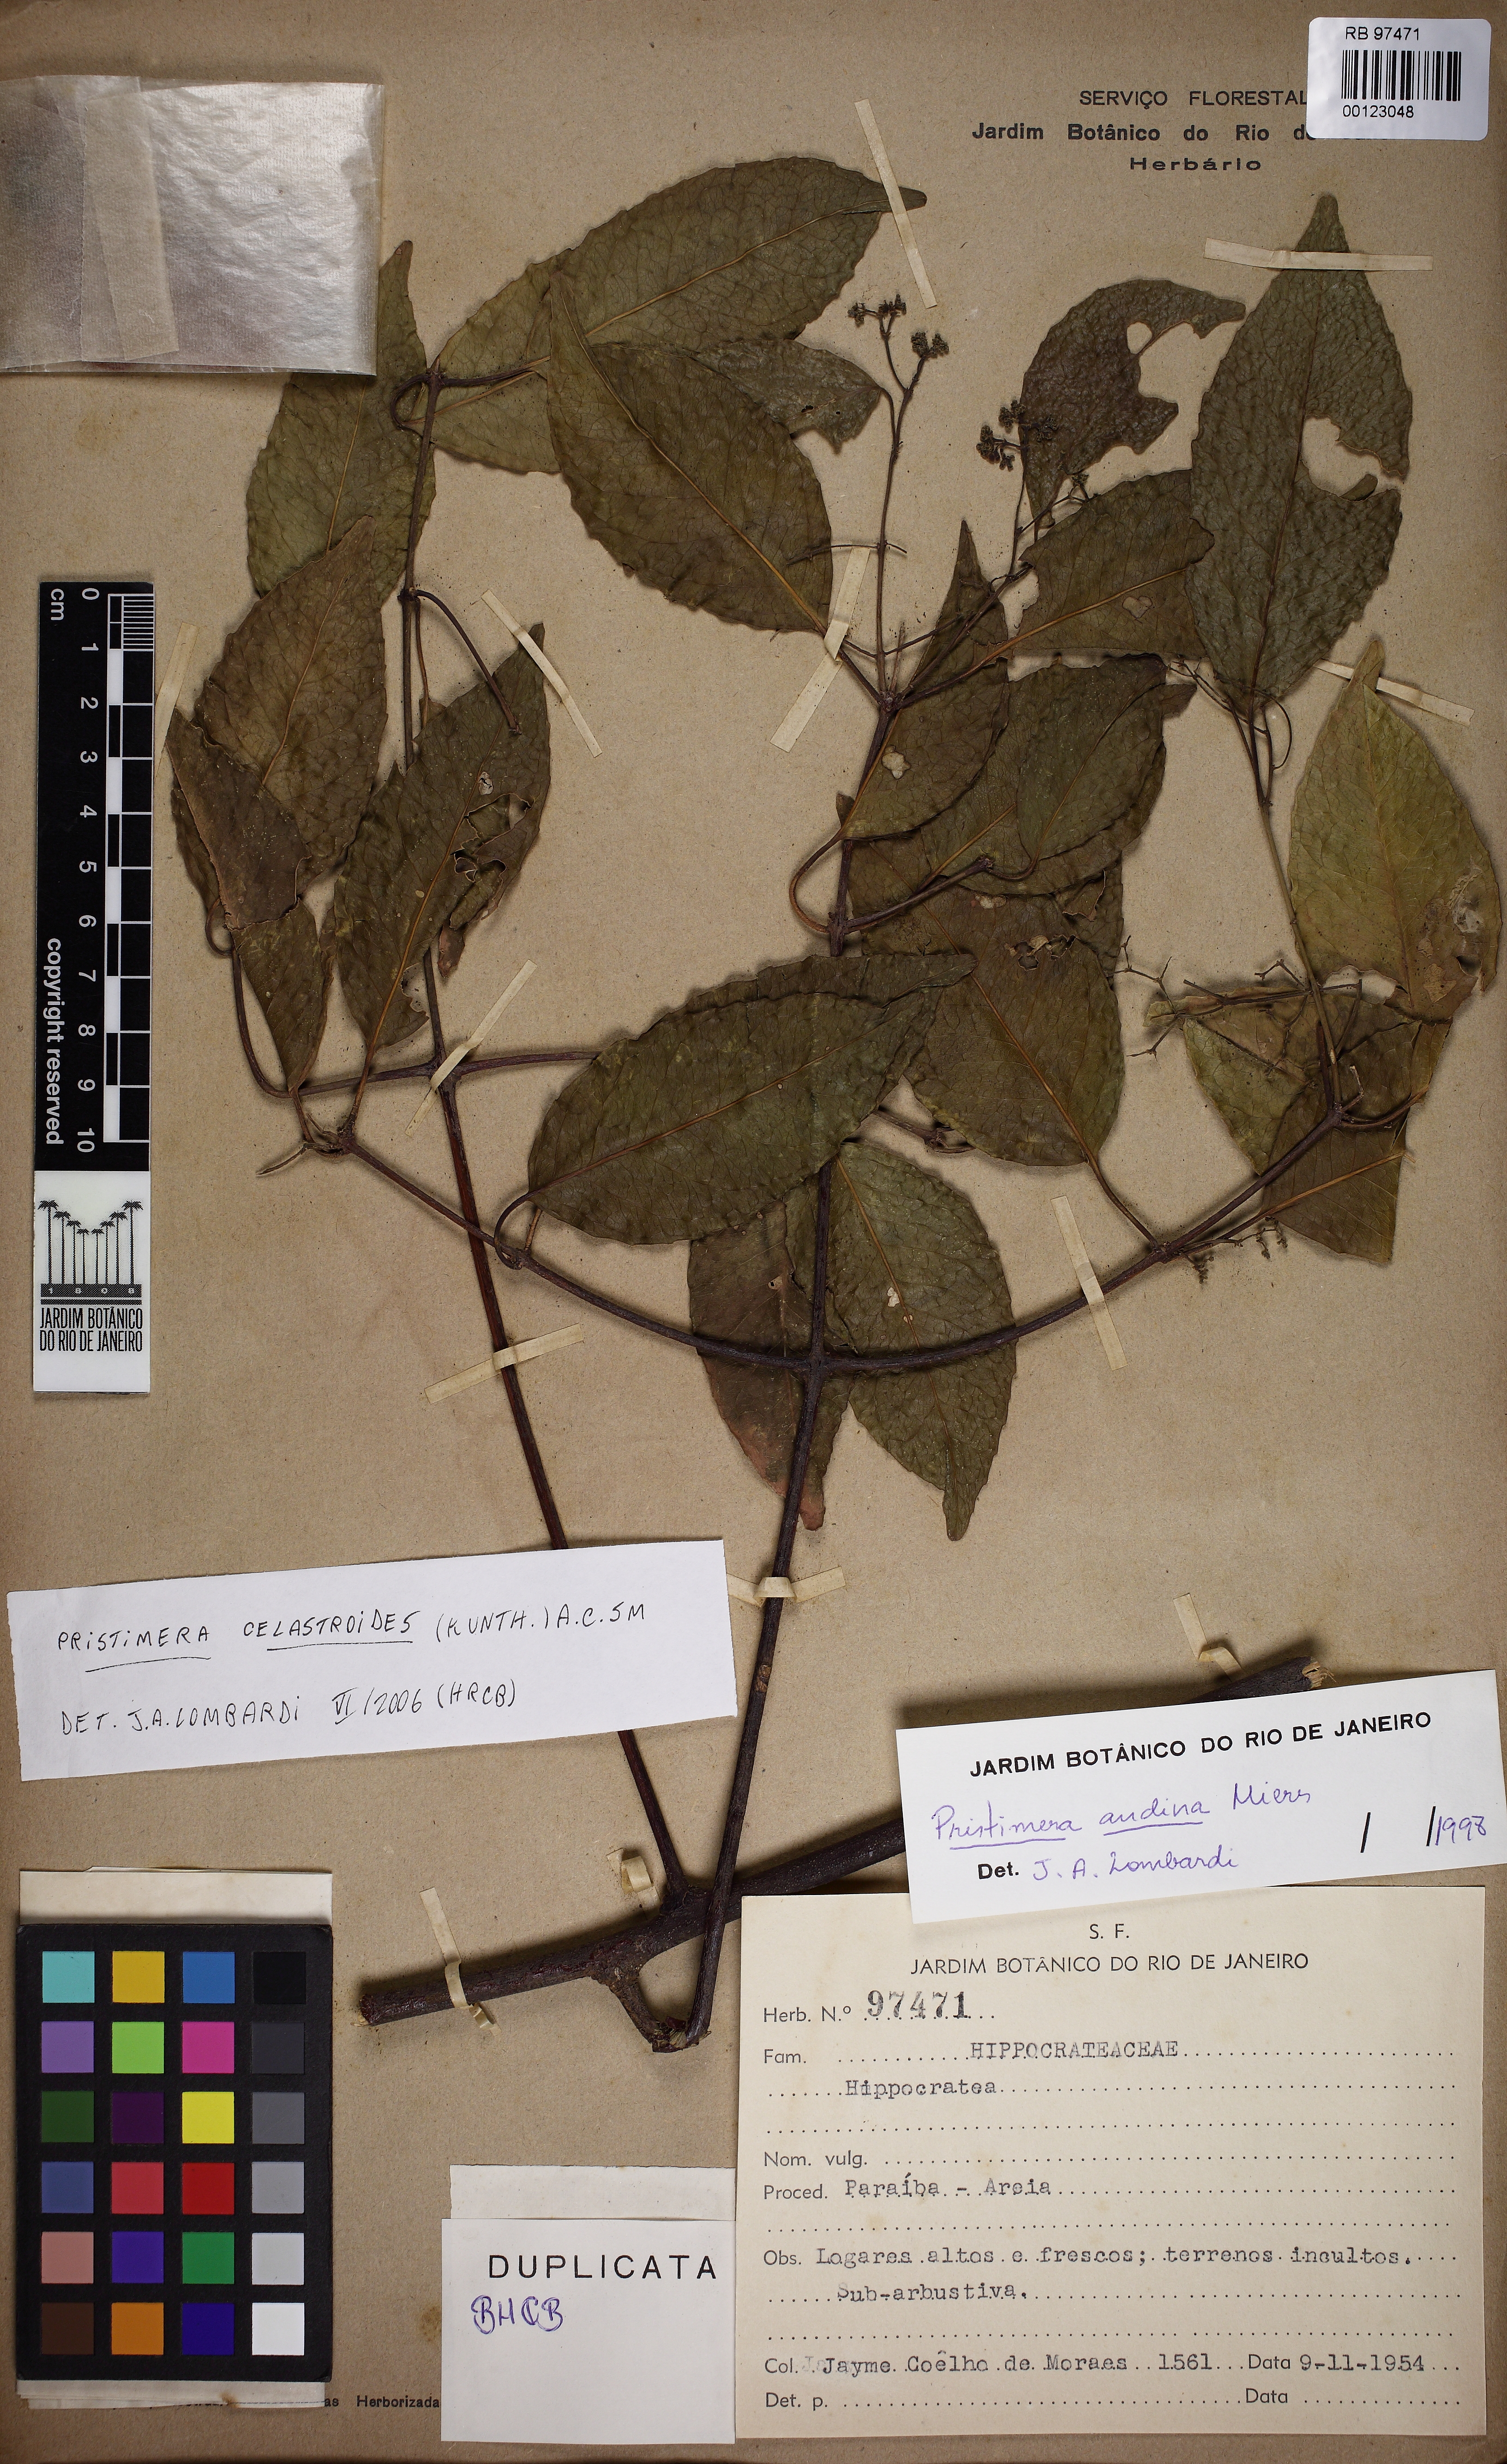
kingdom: Plantae
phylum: Tracheophyta
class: Magnoliopsida
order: Celastrales
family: Celastraceae
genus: Pristimera
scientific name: Pristimera celastroides
